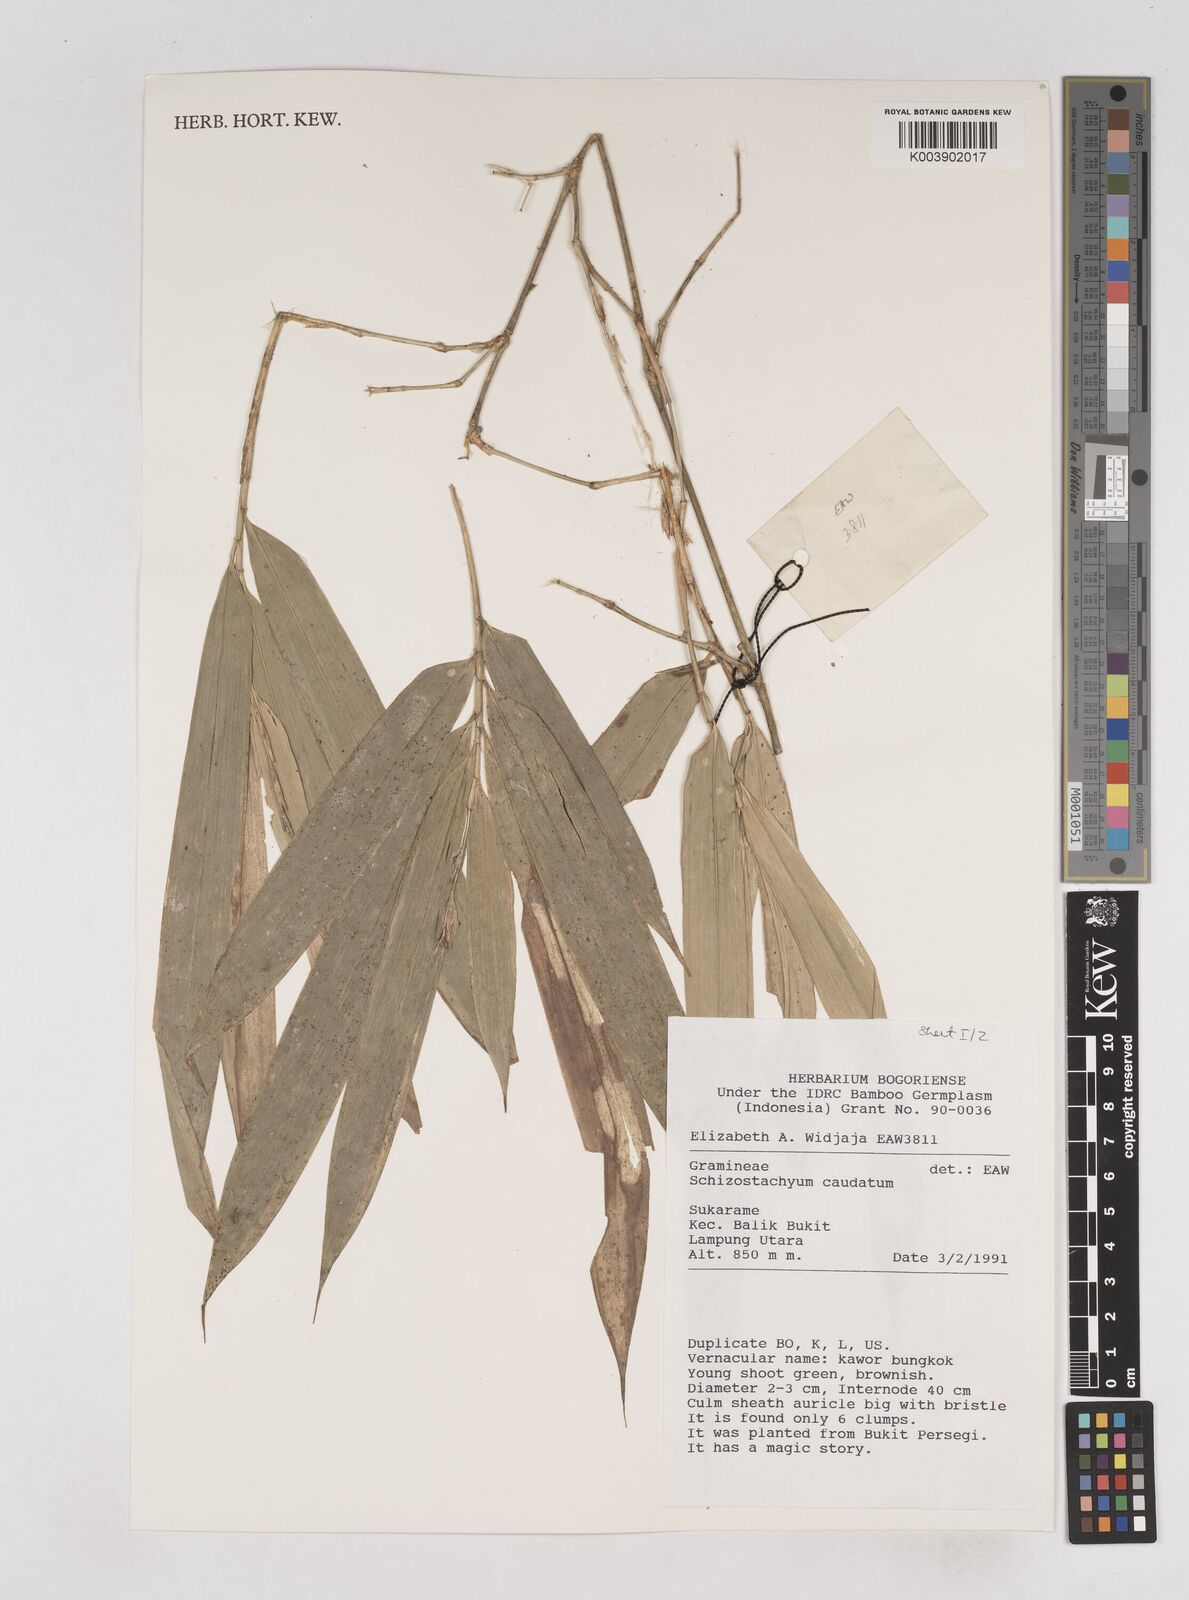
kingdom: Plantae
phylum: Tracheophyta
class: Liliopsida
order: Poales
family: Poaceae
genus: Schizostachyum
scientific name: Schizostachyum caudatum
